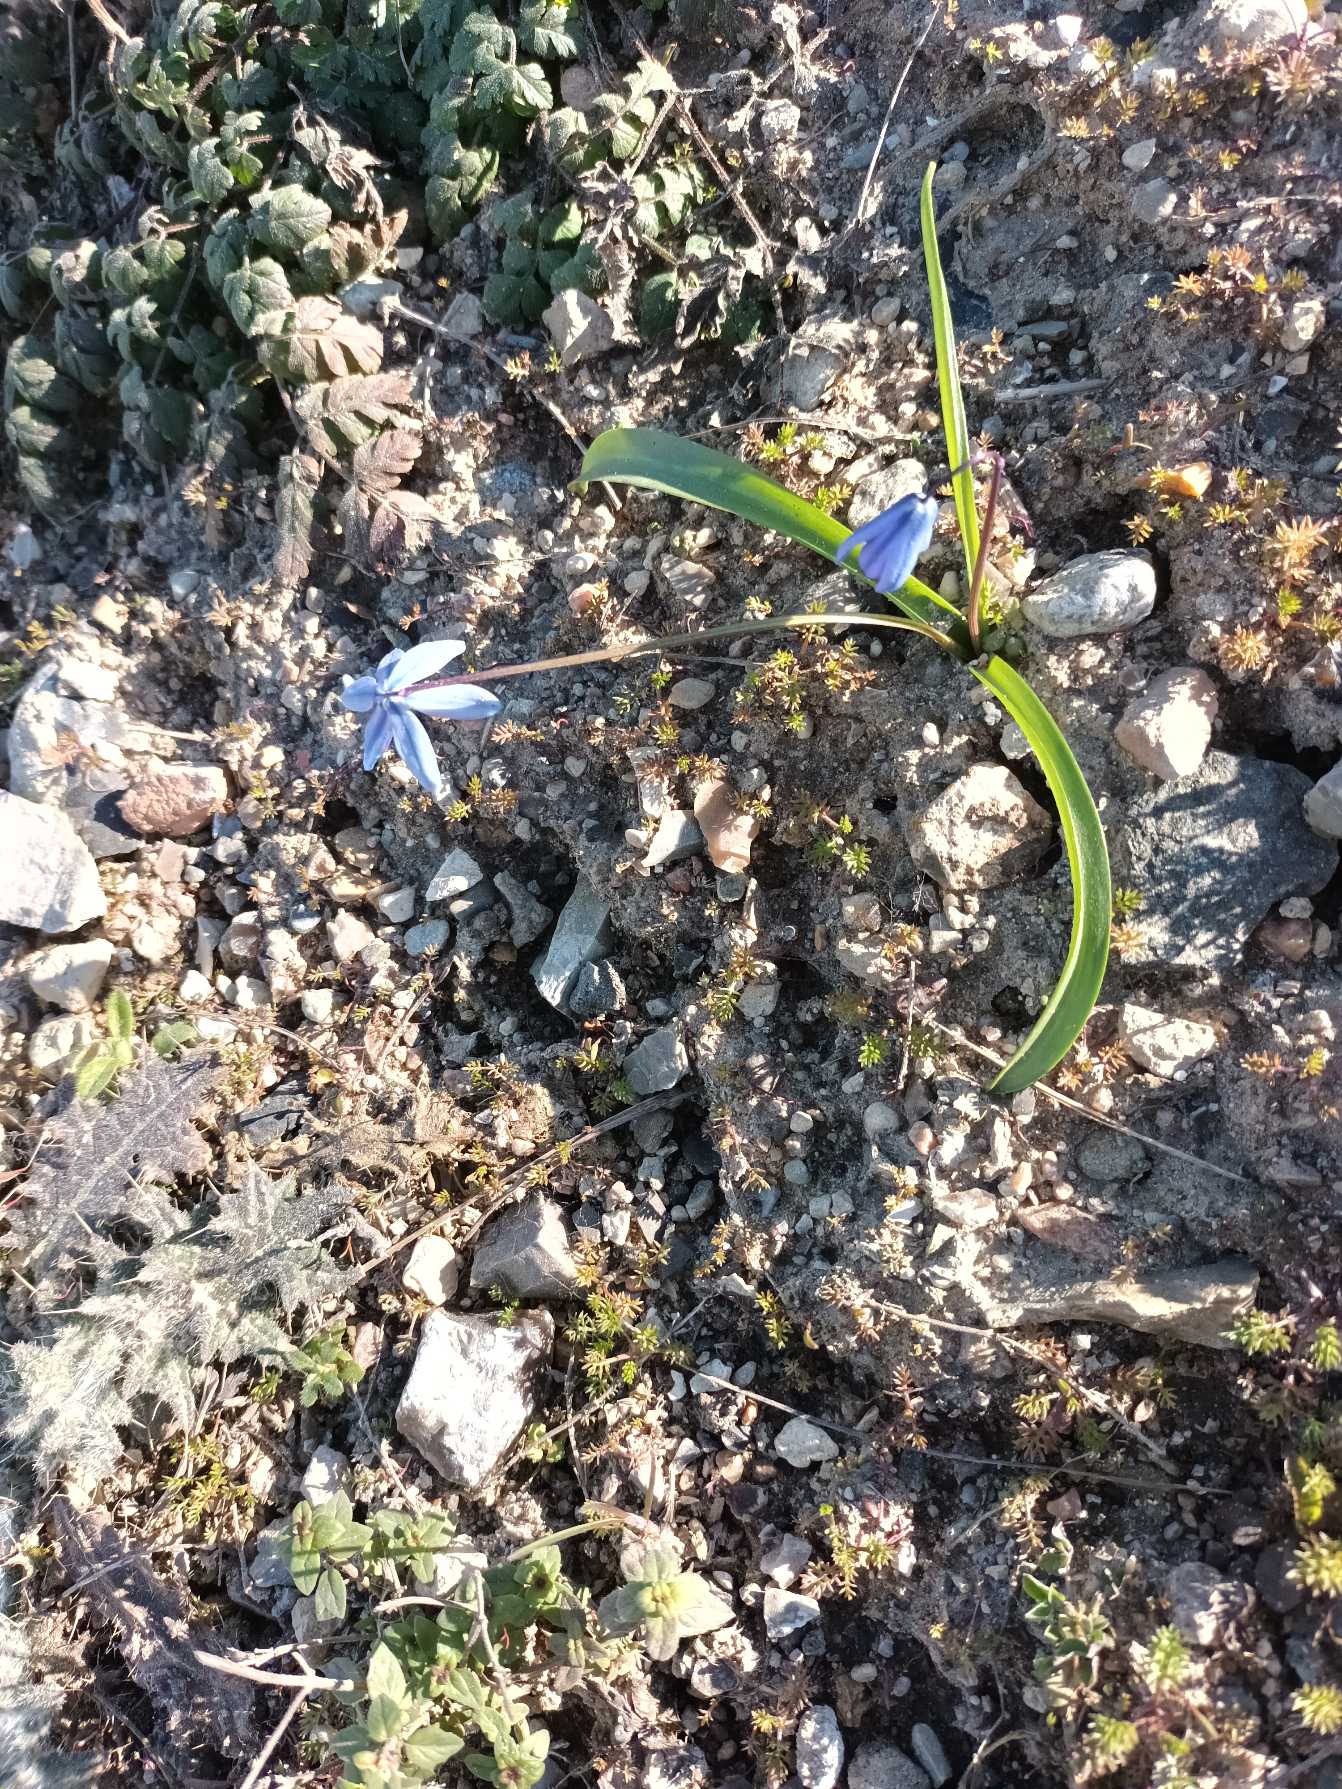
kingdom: Plantae
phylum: Tracheophyta
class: Liliopsida
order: Asparagales
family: Asparagaceae
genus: Scilla
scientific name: Scilla siberica
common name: Russisk skilla
